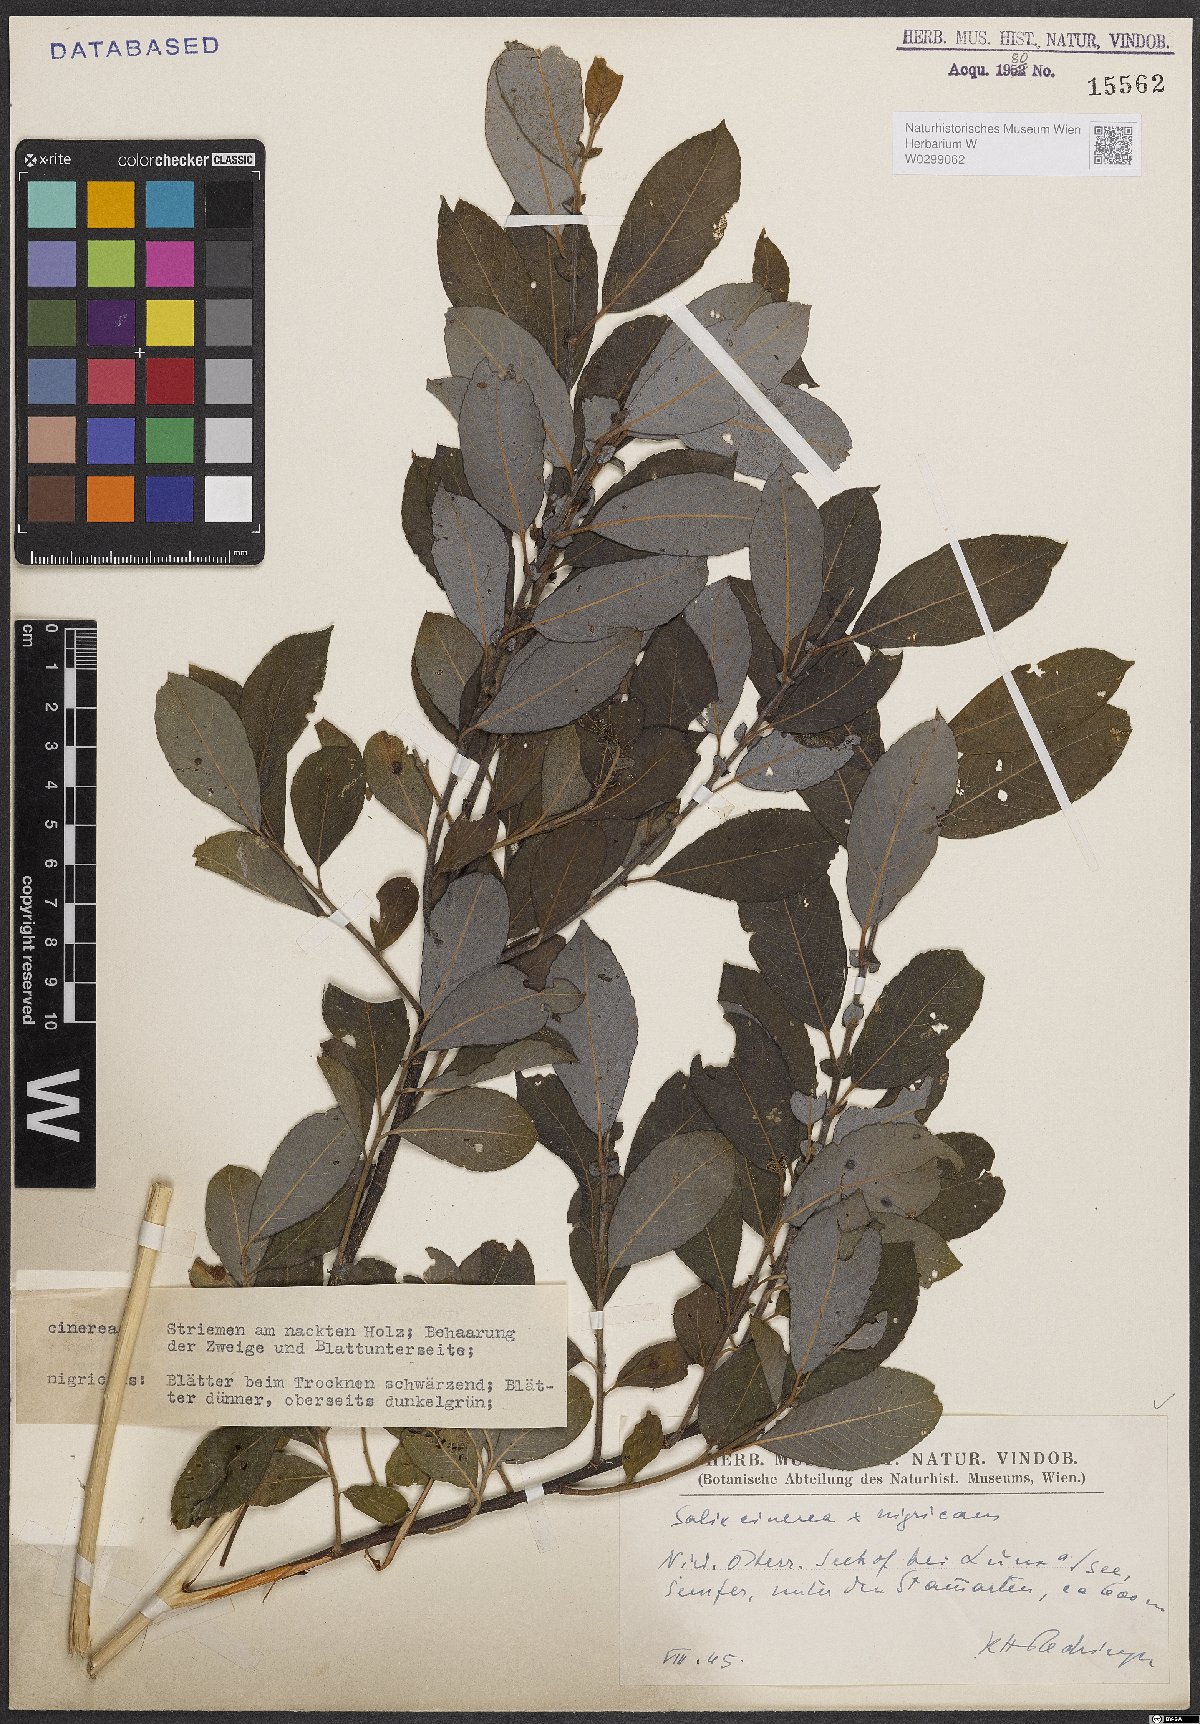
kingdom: Plantae
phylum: Tracheophyta
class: Magnoliopsida
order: Malpighiales
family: Salicaceae
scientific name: Salicaceae
